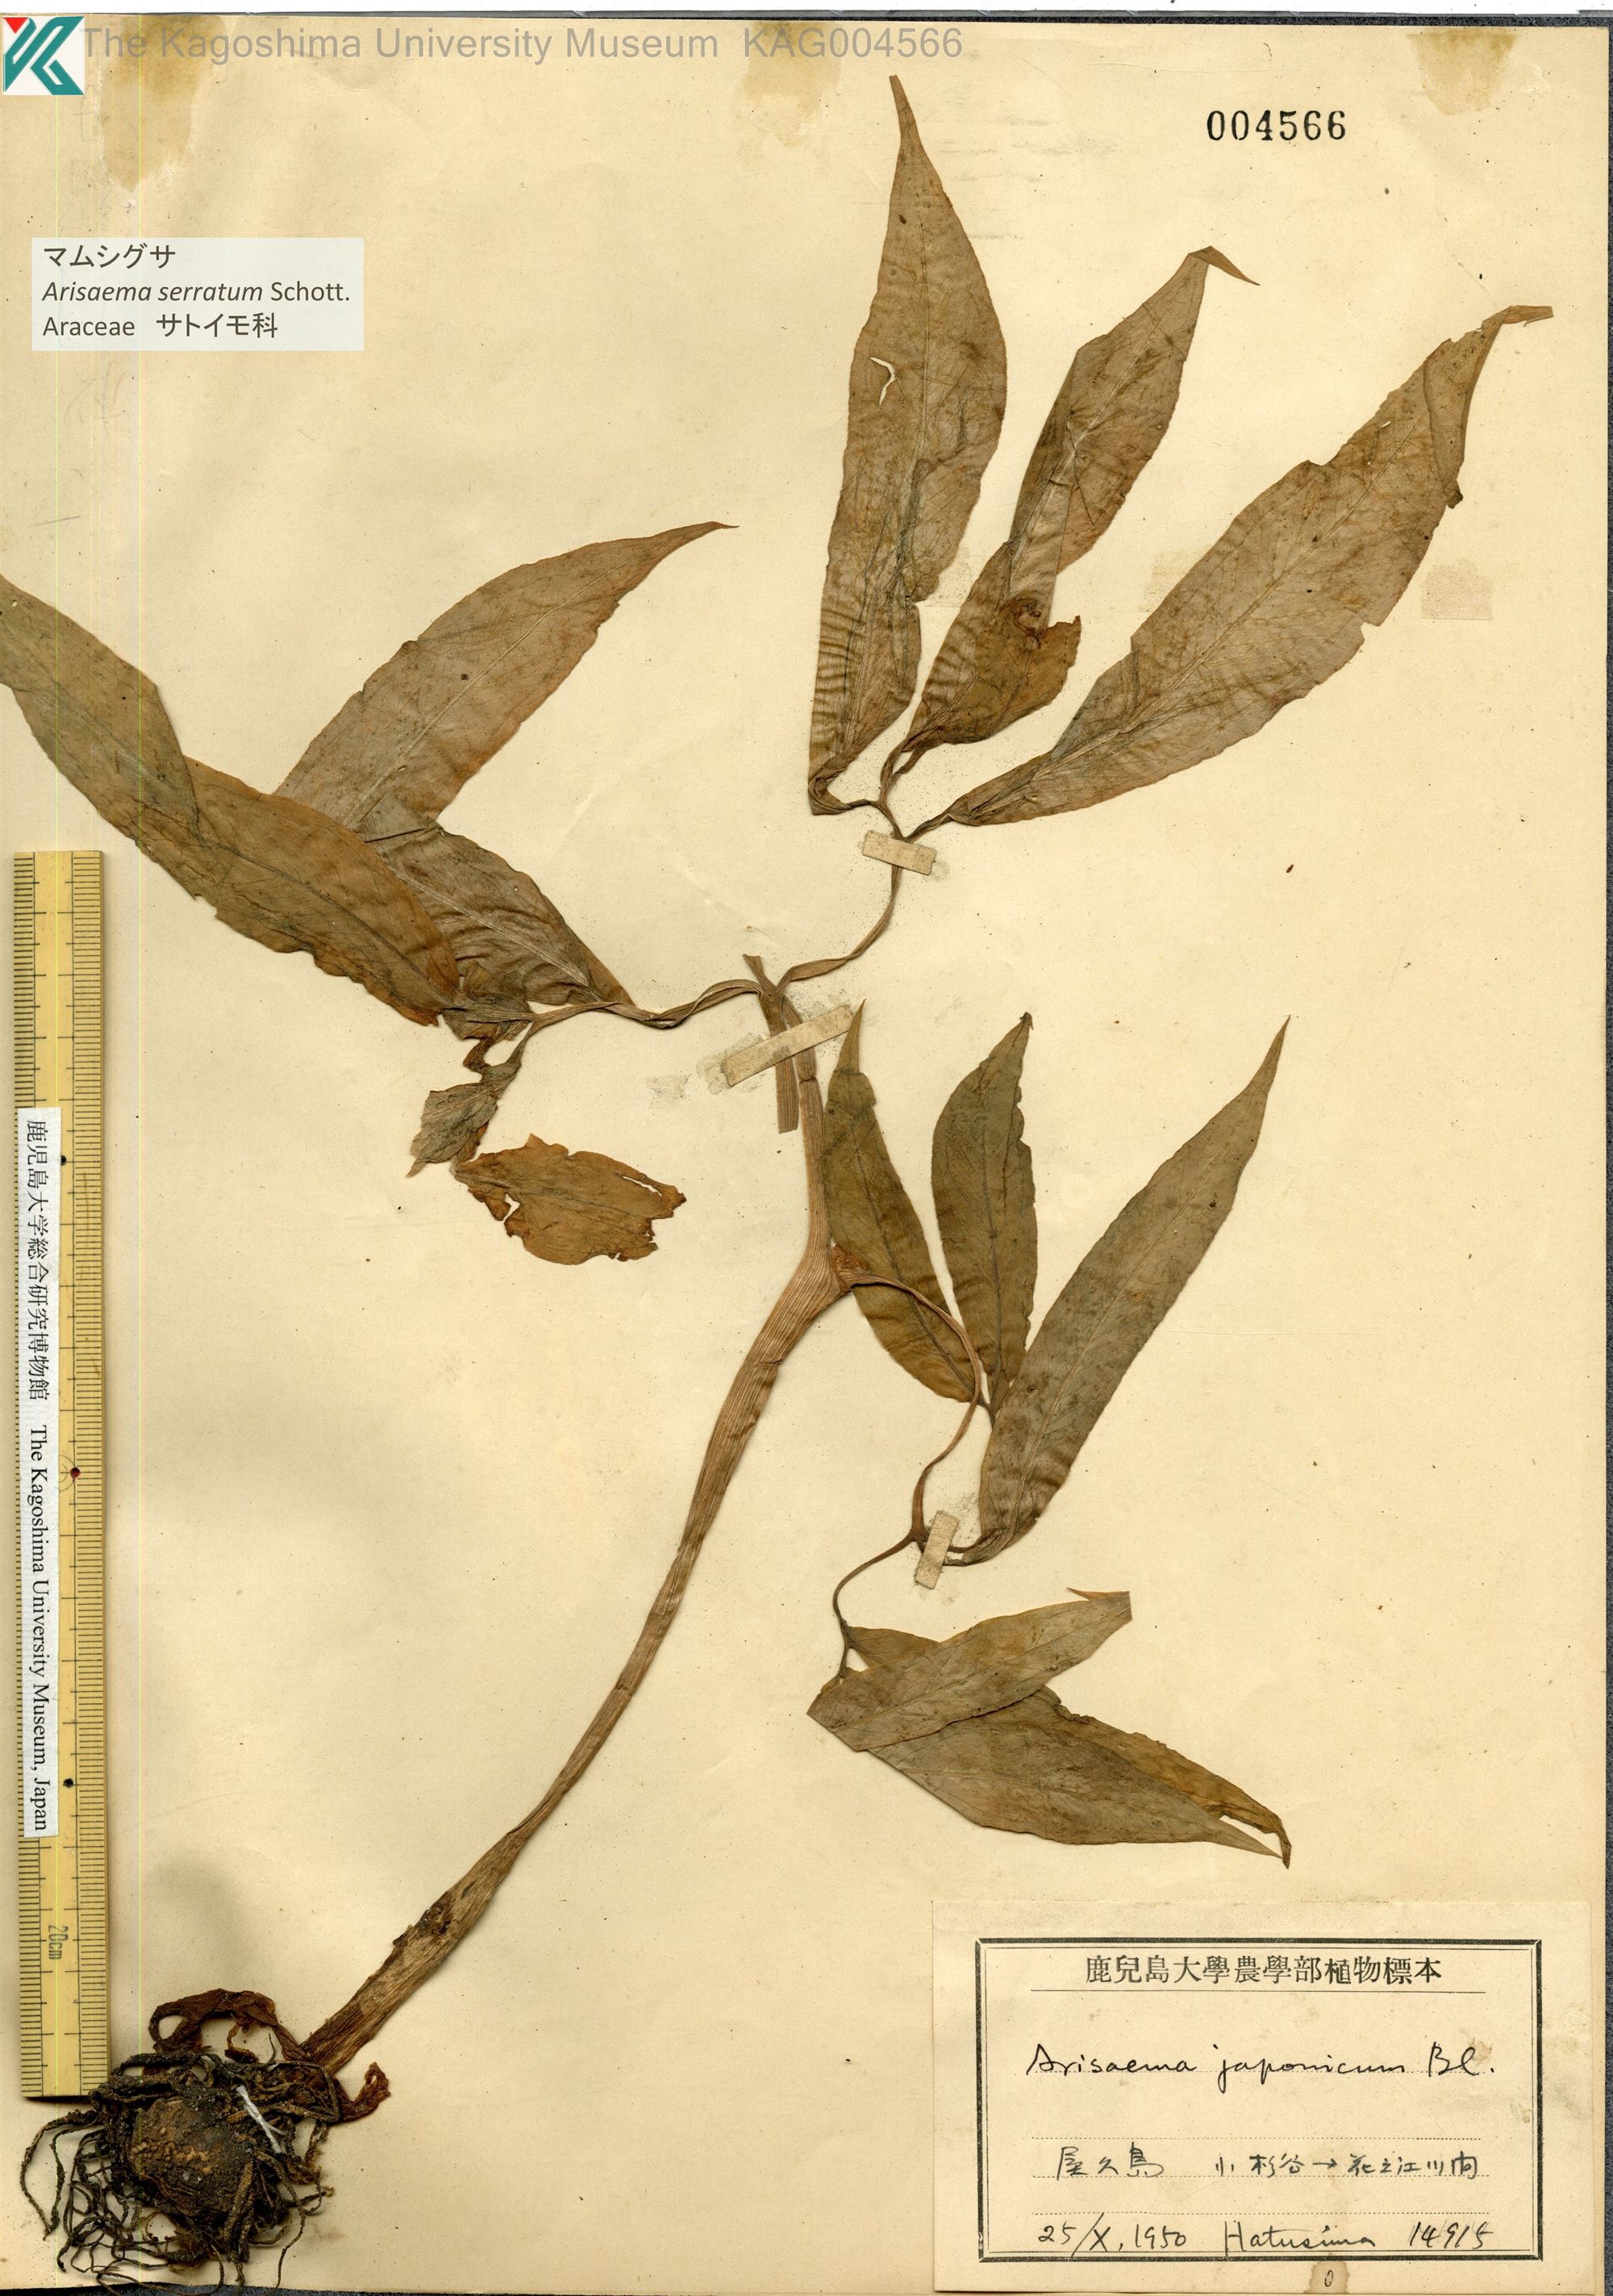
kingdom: Plantae
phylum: Tracheophyta
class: Liliopsida
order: Alismatales
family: Araceae
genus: Arisaema
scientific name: Arisaema serratum
